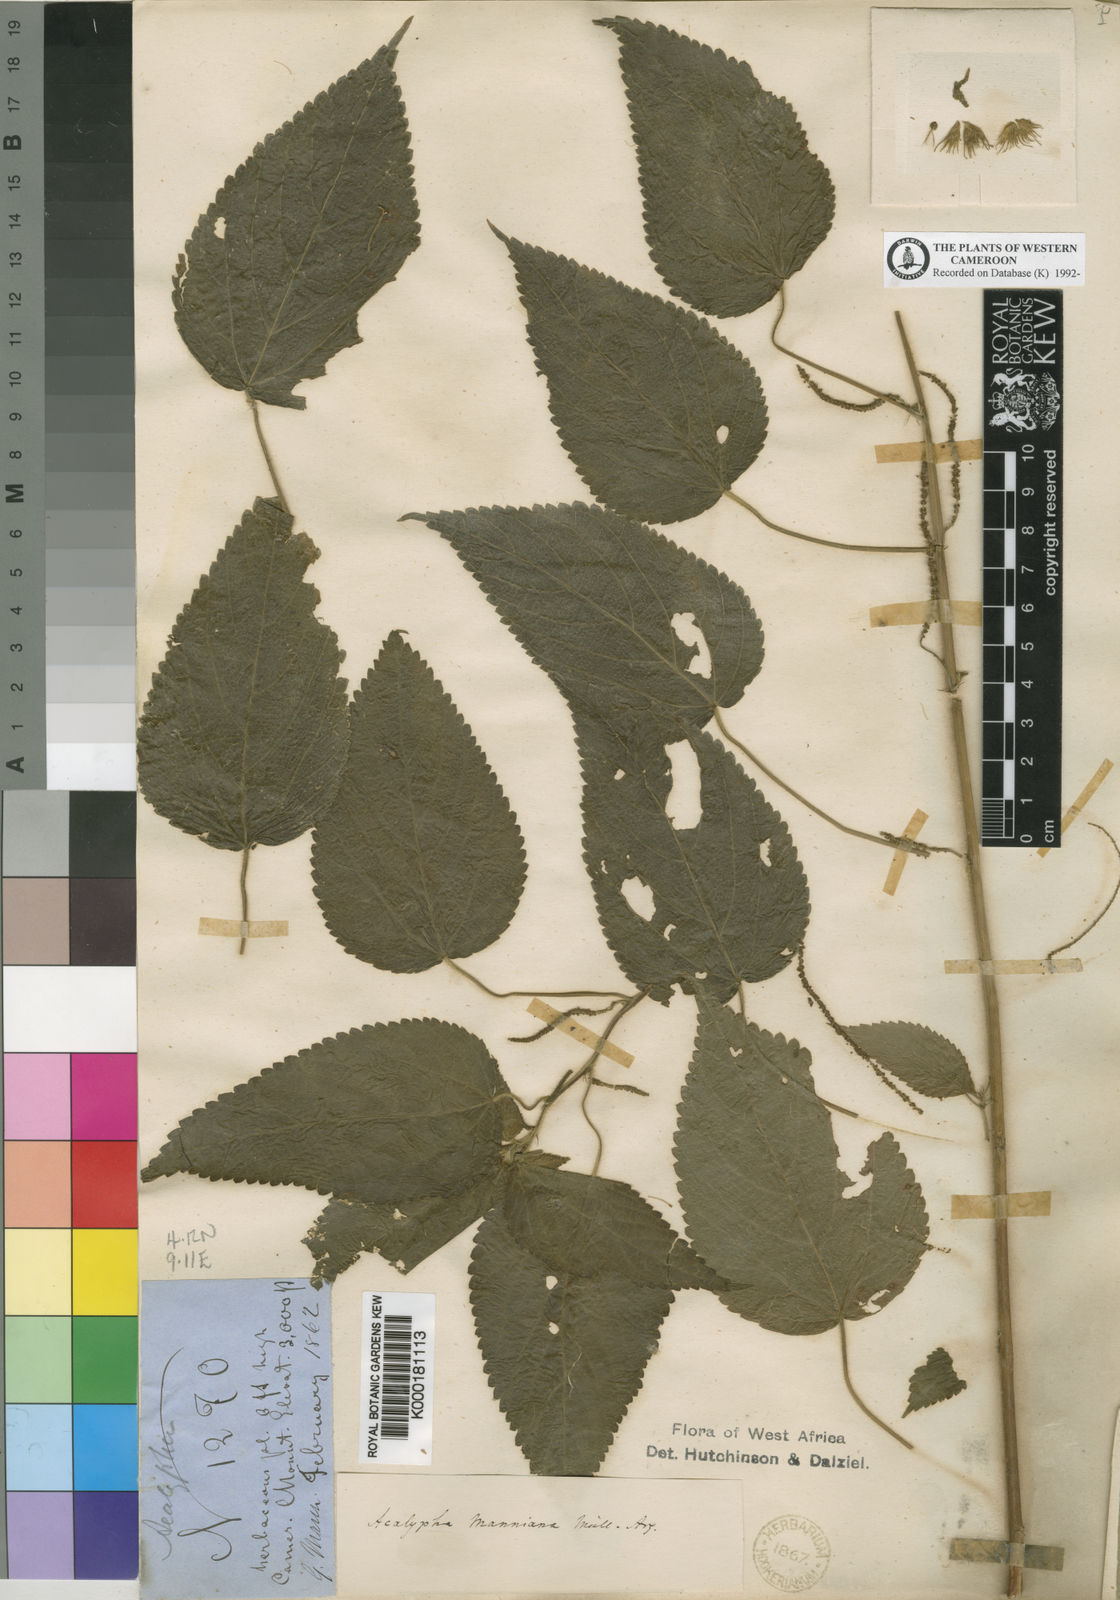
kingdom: Plantae
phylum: Tracheophyta
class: Magnoliopsida
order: Malpighiales
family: Euphorbiaceae
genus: Acalypha
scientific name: Acalypha
